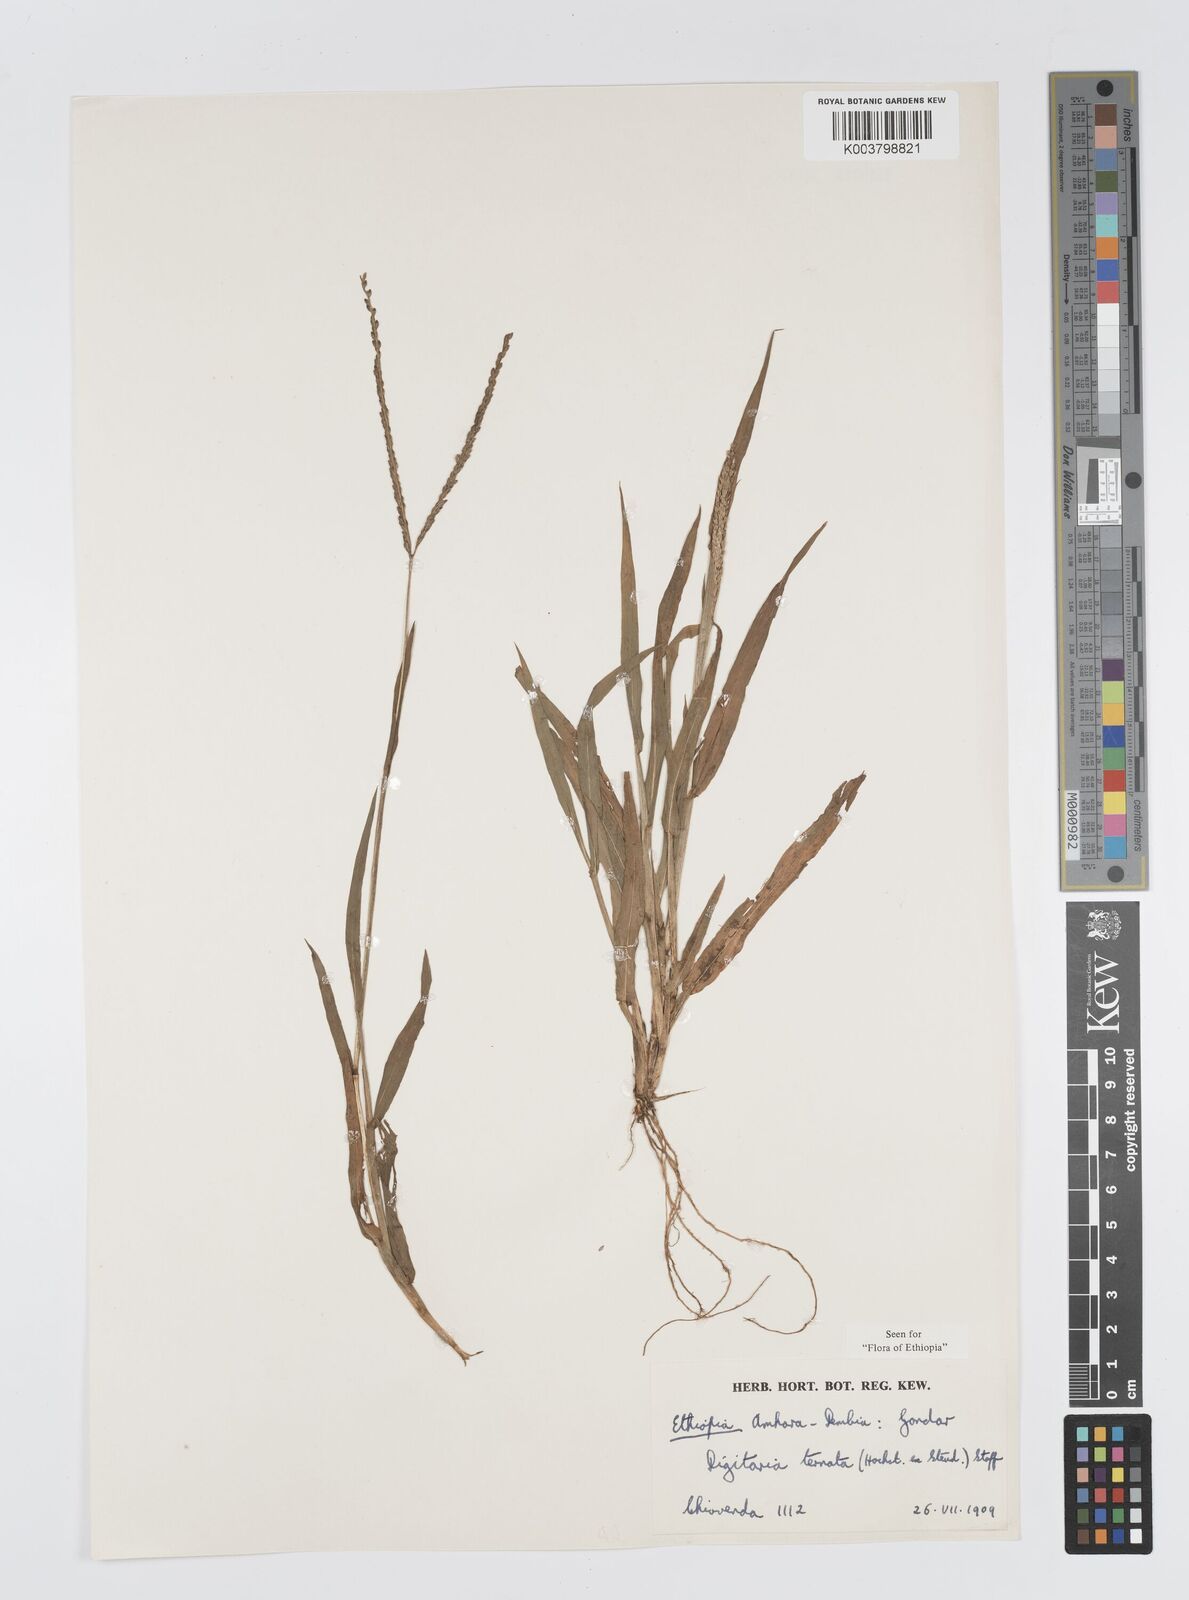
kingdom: Plantae
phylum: Tracheophyta
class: Liliopsida
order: Poales
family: Poaceae
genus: Digitaria
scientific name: Digitaria ternata
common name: Blackseed crabgrass
